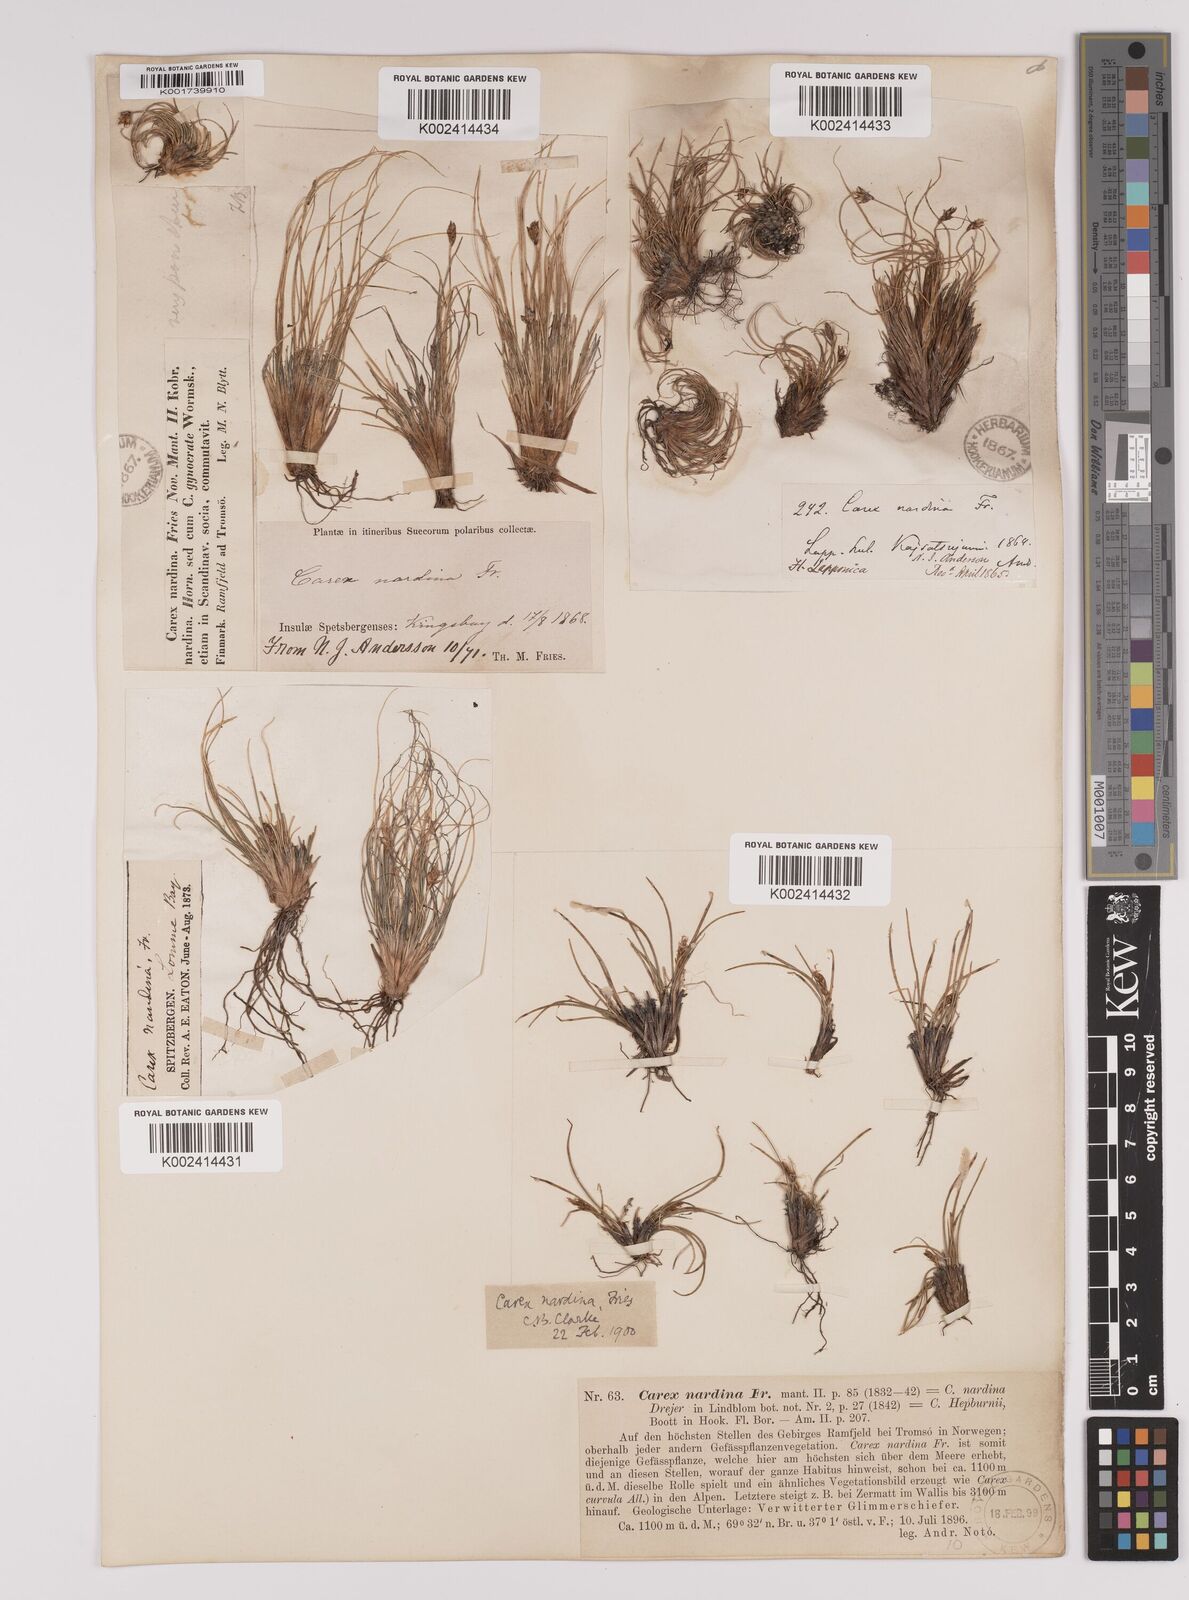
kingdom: Plantae
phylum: Tracheophyta
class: Liliopsida
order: Poales
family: Cyperaceae
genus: Carex
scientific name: Carex nardina
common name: Nard sedge
